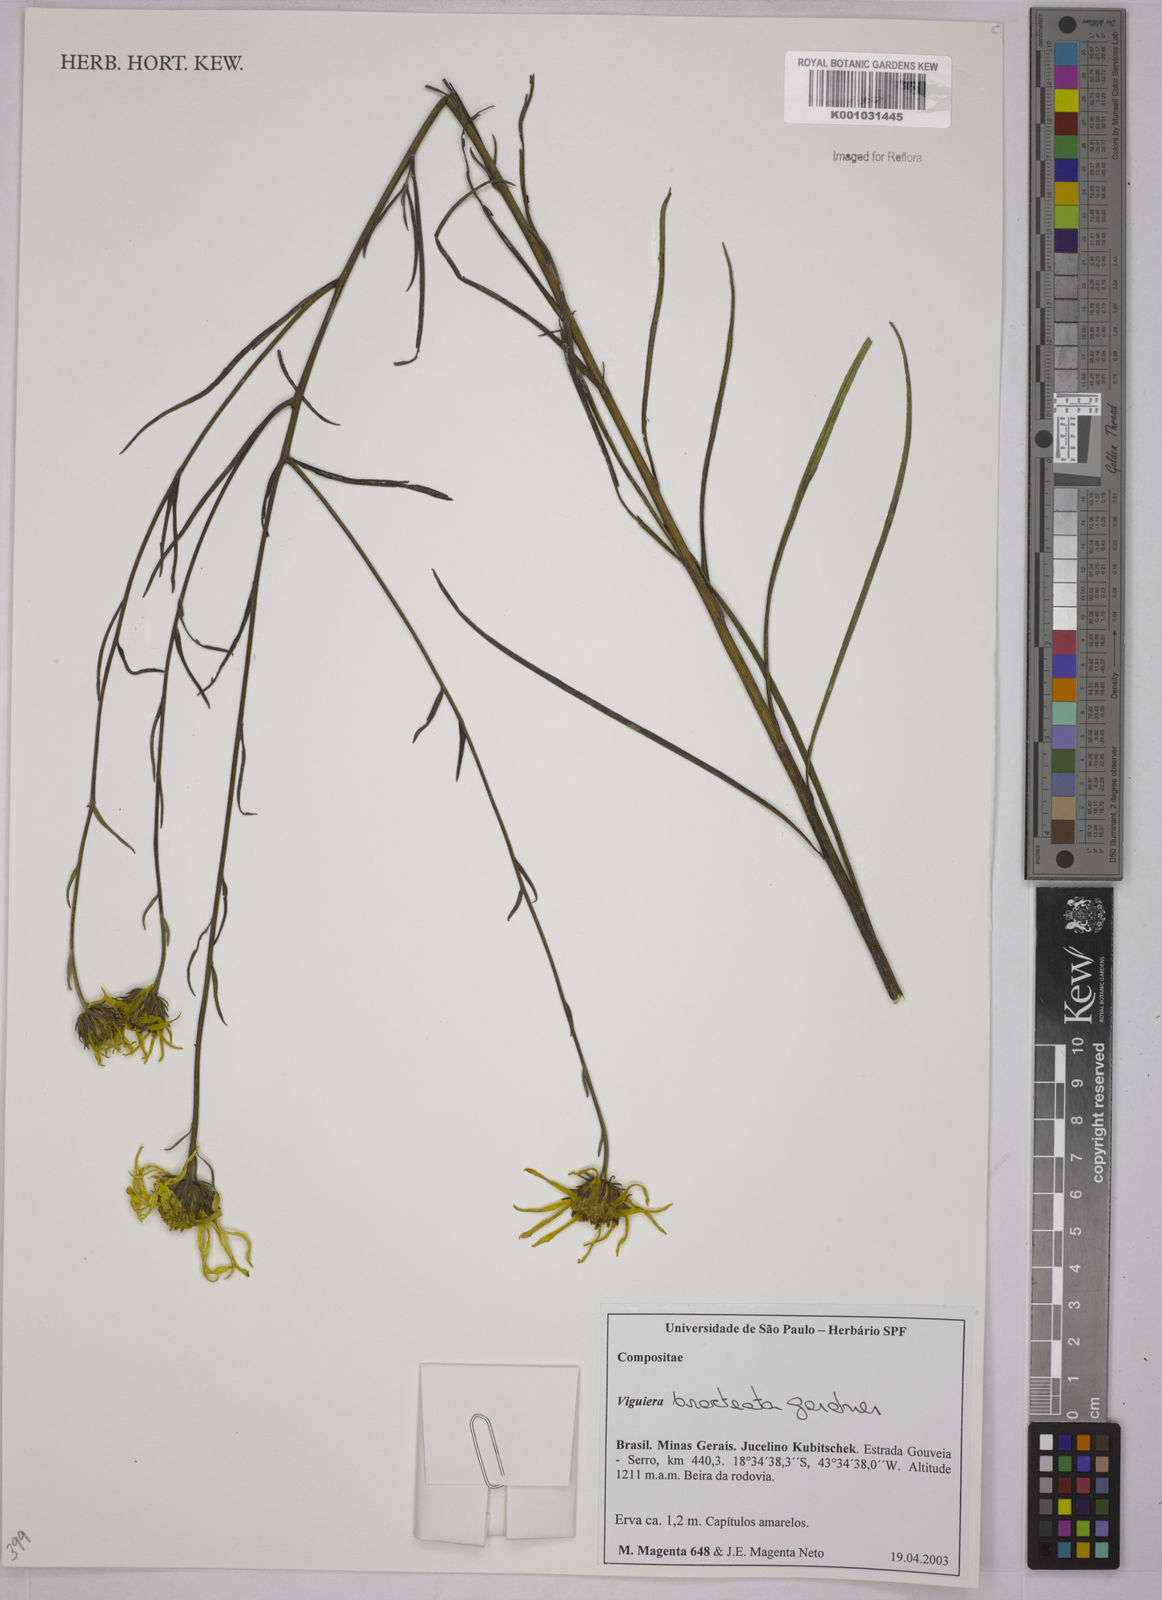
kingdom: Plantae
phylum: Tracheophyta
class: Magnoliopsida
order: Asterales
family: Asteraceae
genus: Aldama
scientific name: Aldama bracteata
